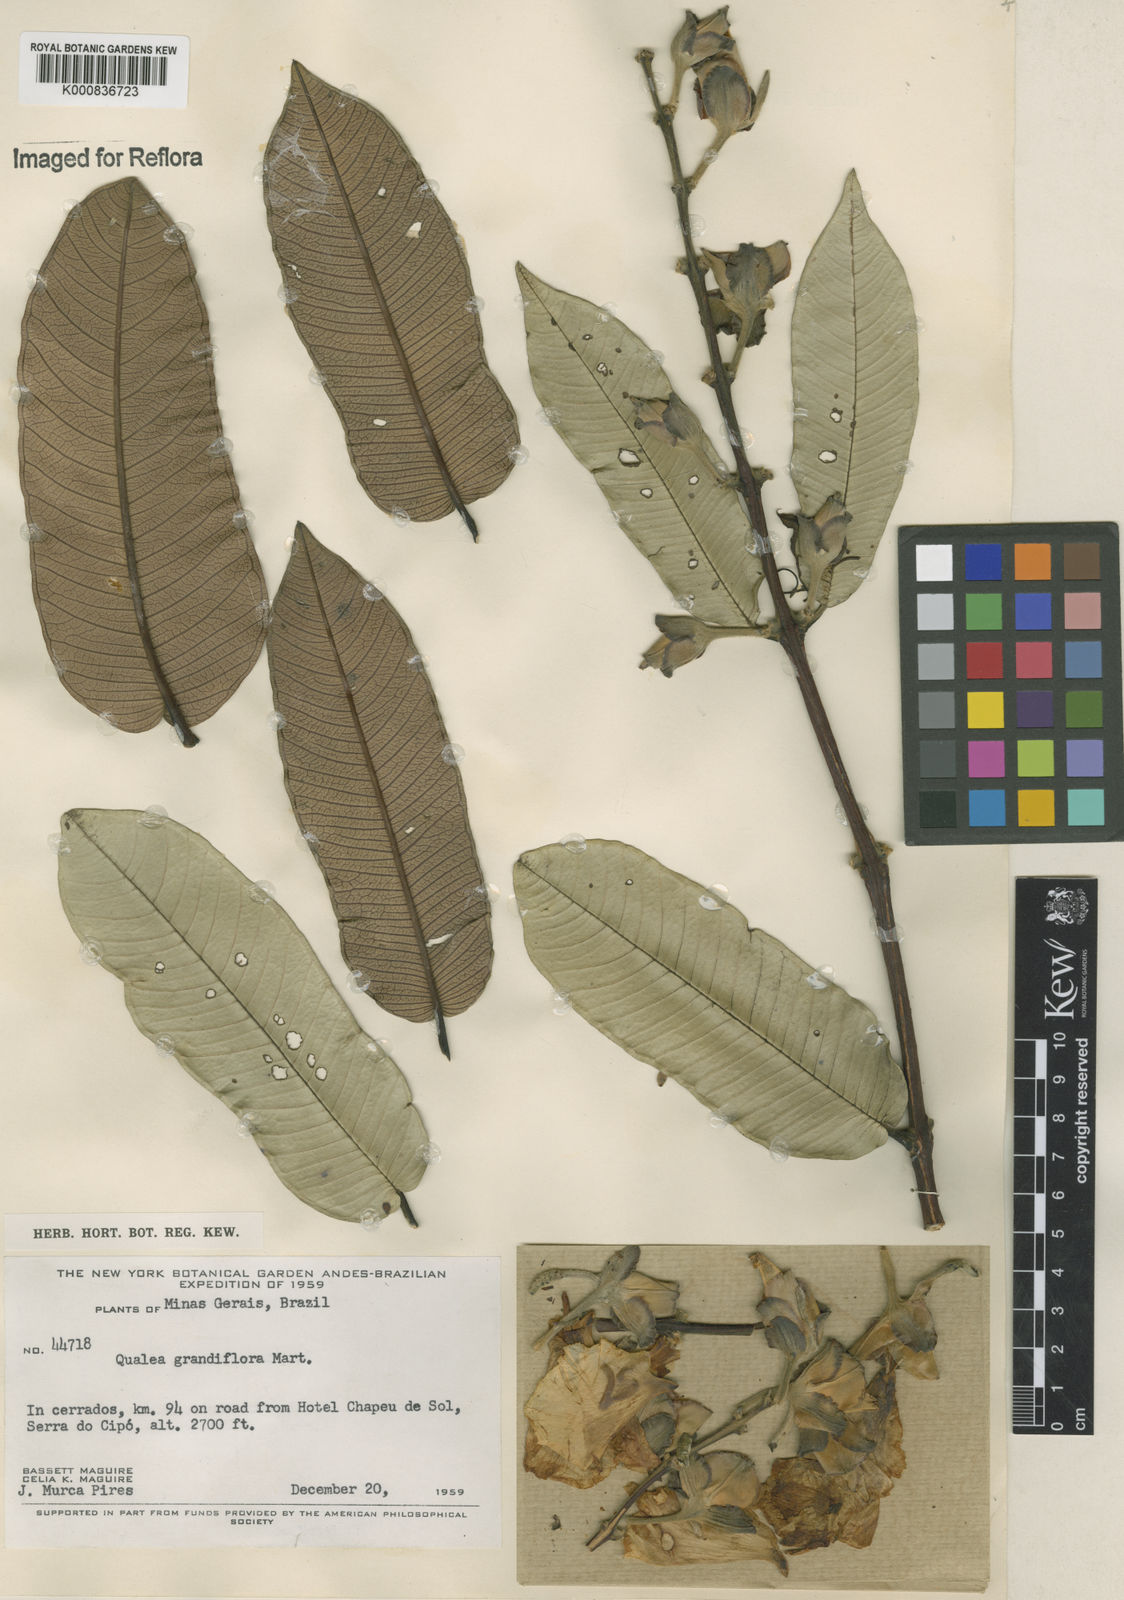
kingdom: Plantae
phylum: Tracheophyta
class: Magnoliopsida
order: Myrtales
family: Vochysiaceae
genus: Qualea
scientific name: Qualea grandiflora
